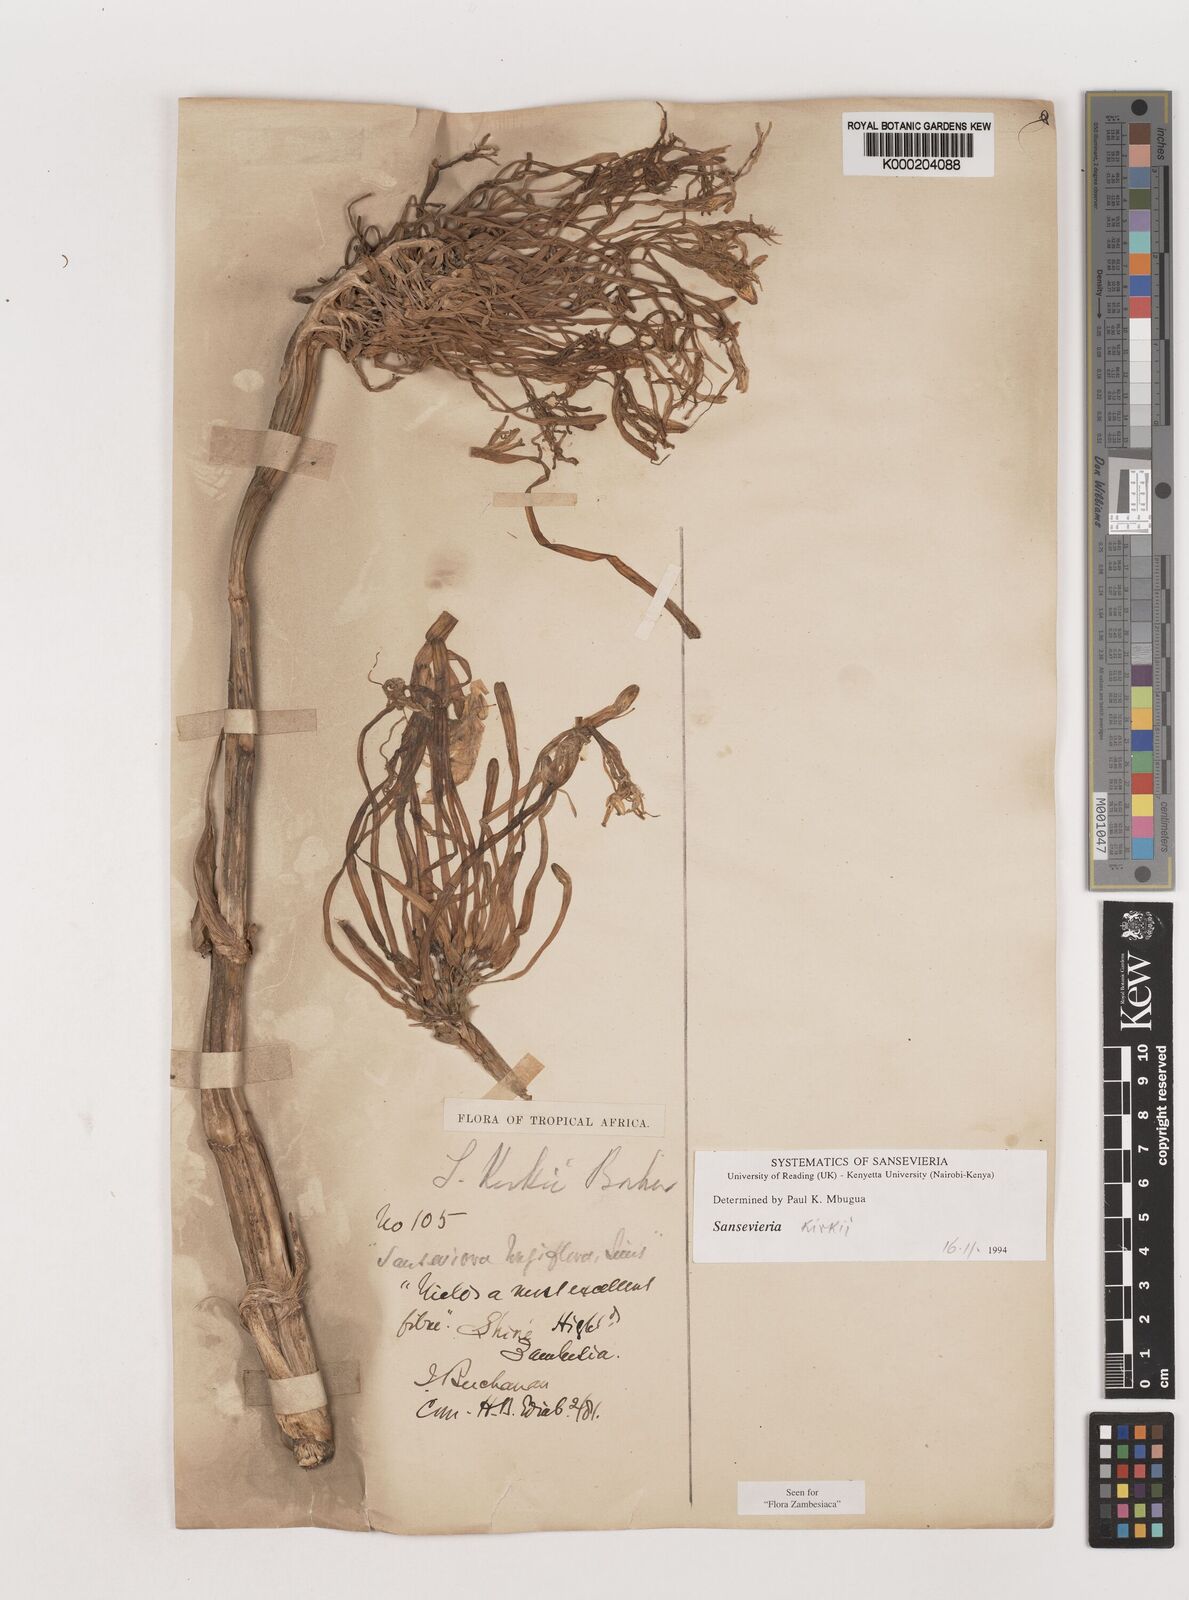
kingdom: Plantae
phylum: Tracheophyta
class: Liliopsida
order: Asparagales
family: Asparagaceae
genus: Dracaena
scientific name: Dracaena pethera
